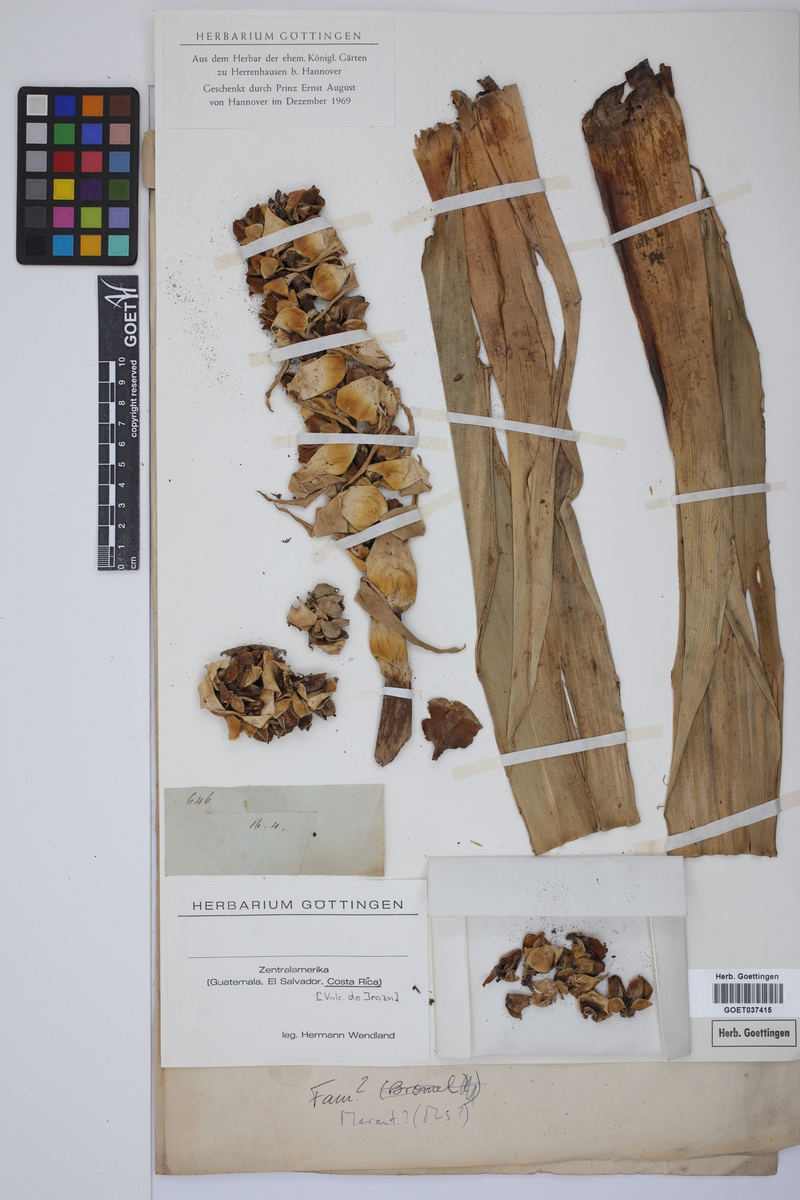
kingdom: Plantae
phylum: Tracheophyta
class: Liliopsida
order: Zingiberales
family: Marantaceae
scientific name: Marantaceae
